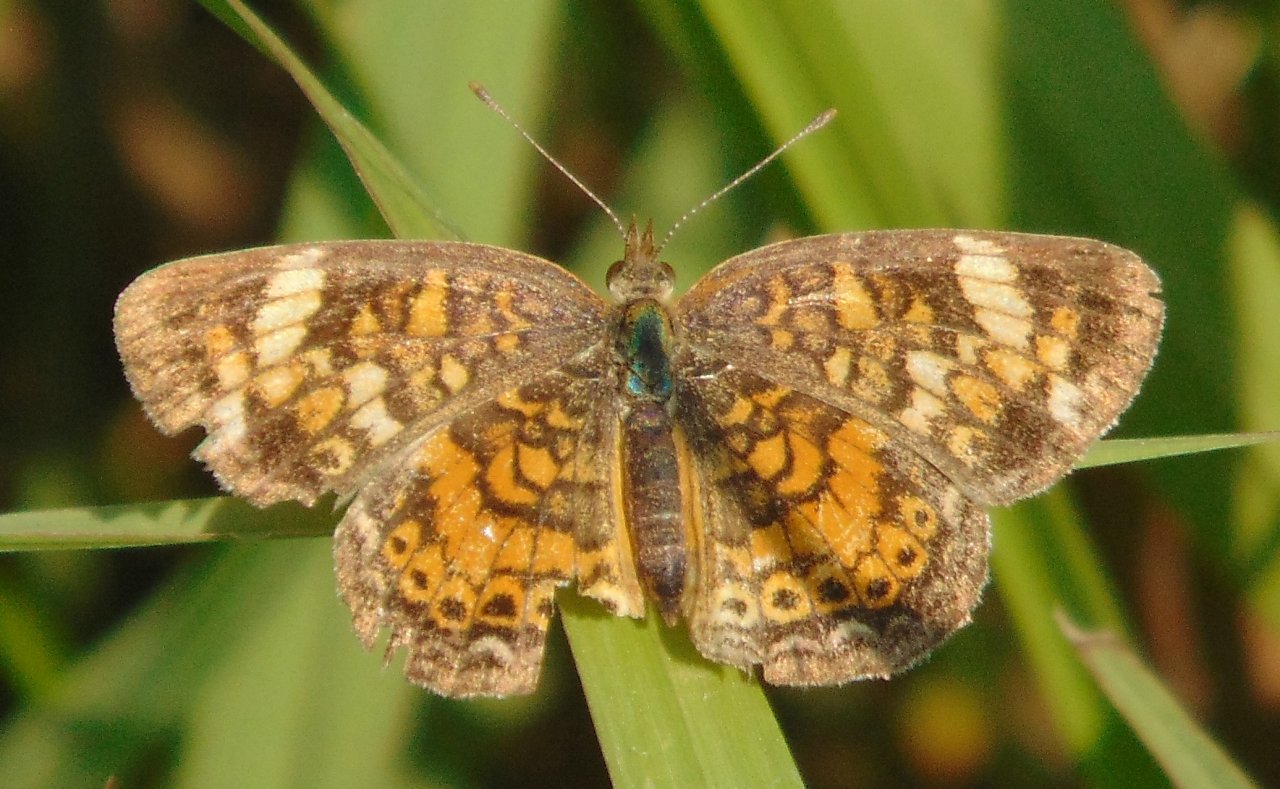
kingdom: Animalia
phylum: Arthropoda
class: Insecta
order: Lepidoptera
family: Nymphalidae
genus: Phyciodes
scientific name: Phyciodes tharos
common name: Pearl Crescent
